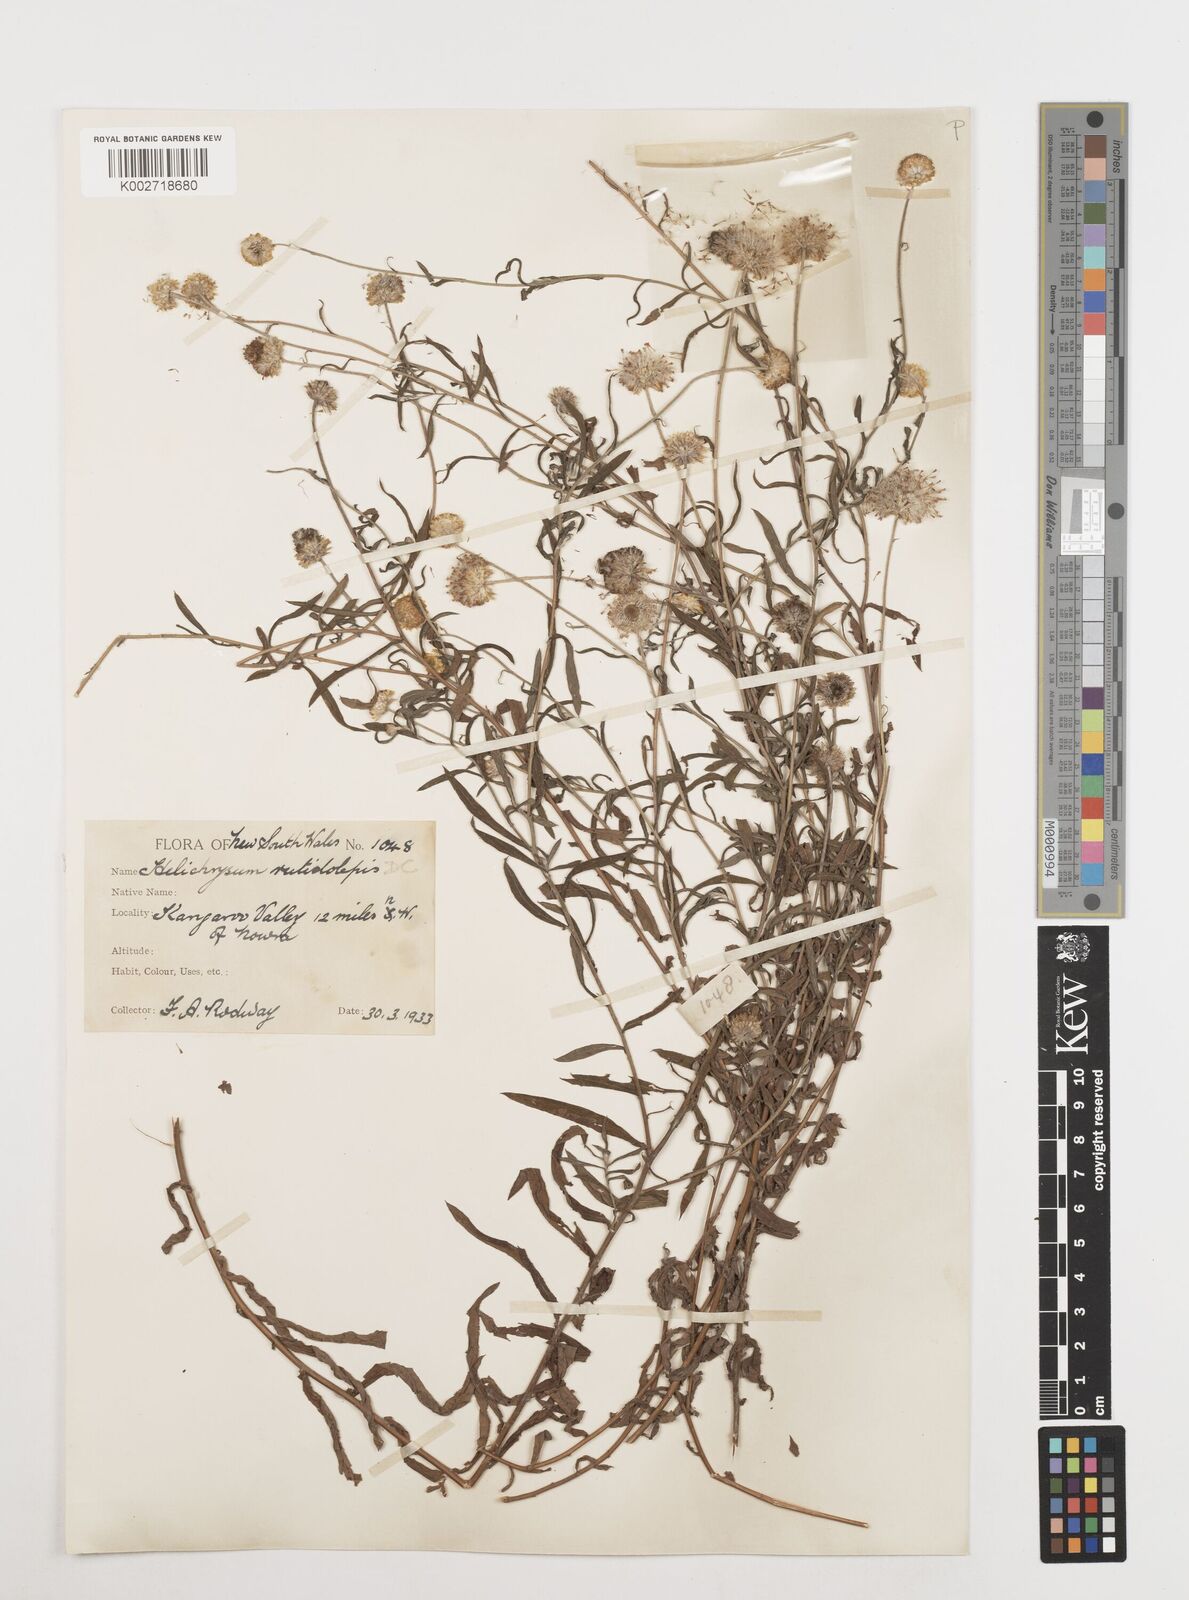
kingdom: Plantae
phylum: Tracheophyta
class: Magnoliopsida
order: Asterales
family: Asteraceae
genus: Coronidium
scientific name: Coronidium rutidolepis
